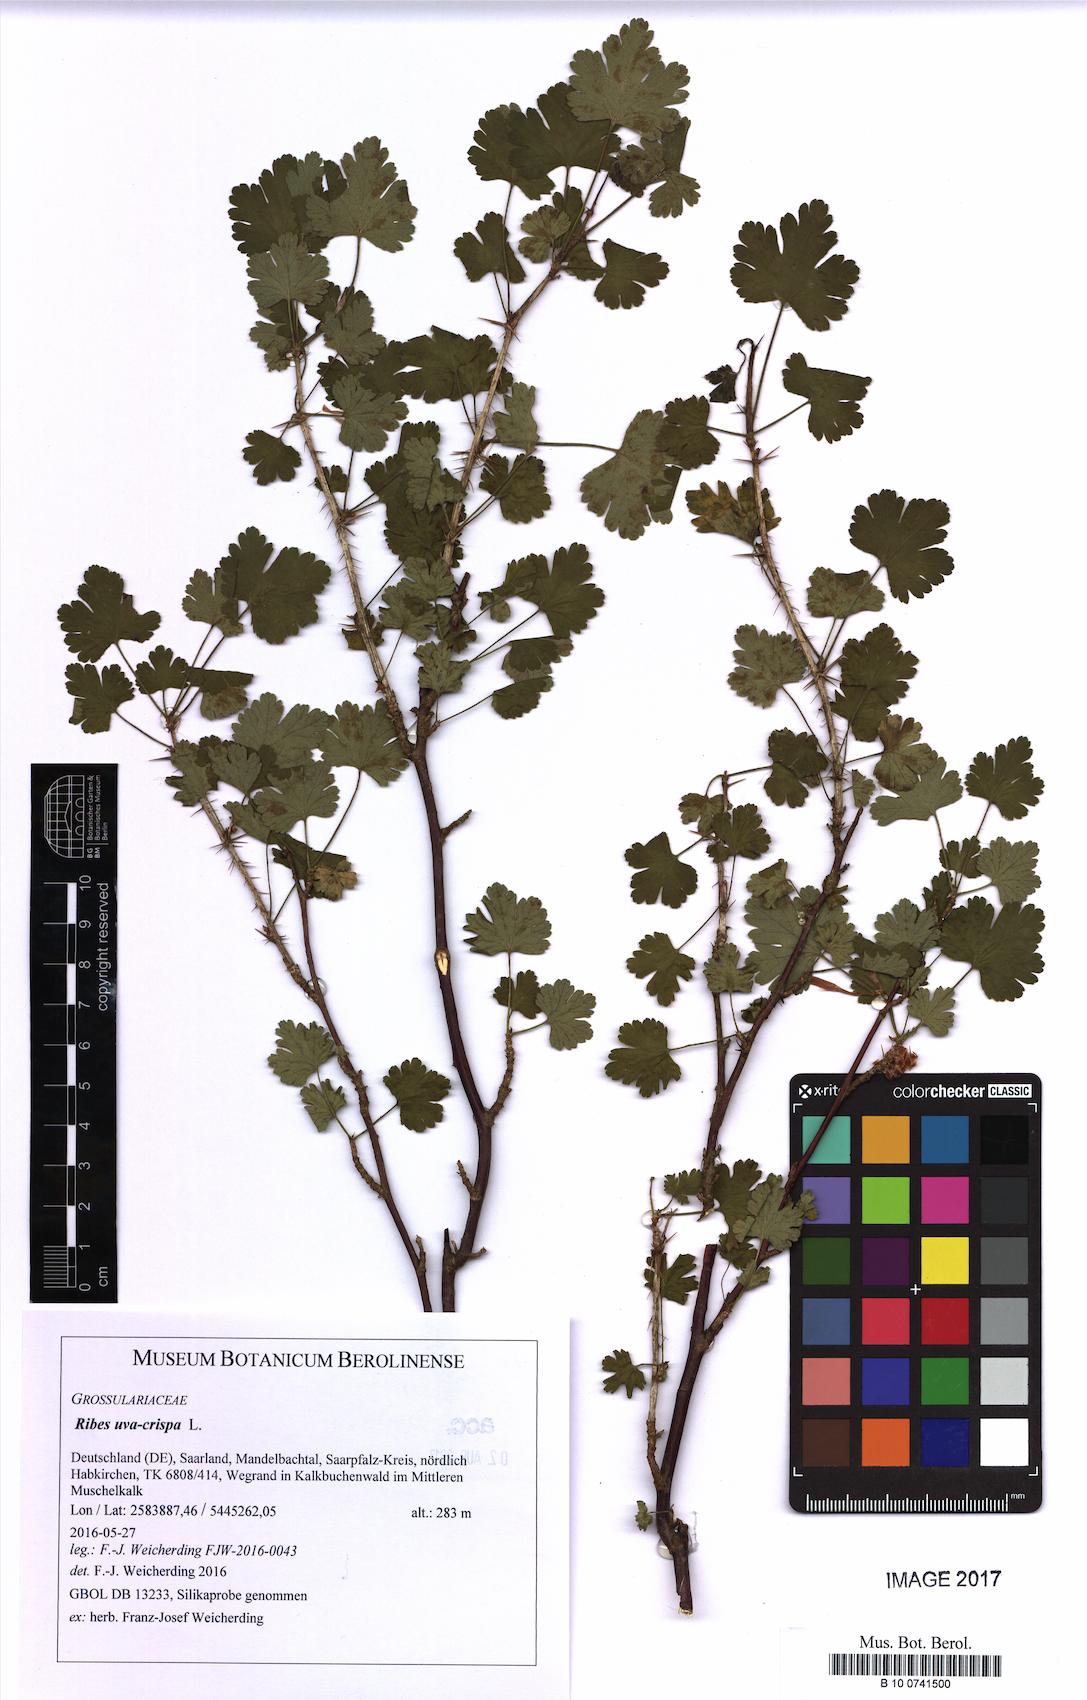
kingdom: Plantae
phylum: Tracheophyta
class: Magnoliopsida
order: Saxifragales
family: Grossulariaceae
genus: Ribes
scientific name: Ribes uva-crispa
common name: Gooseberry
